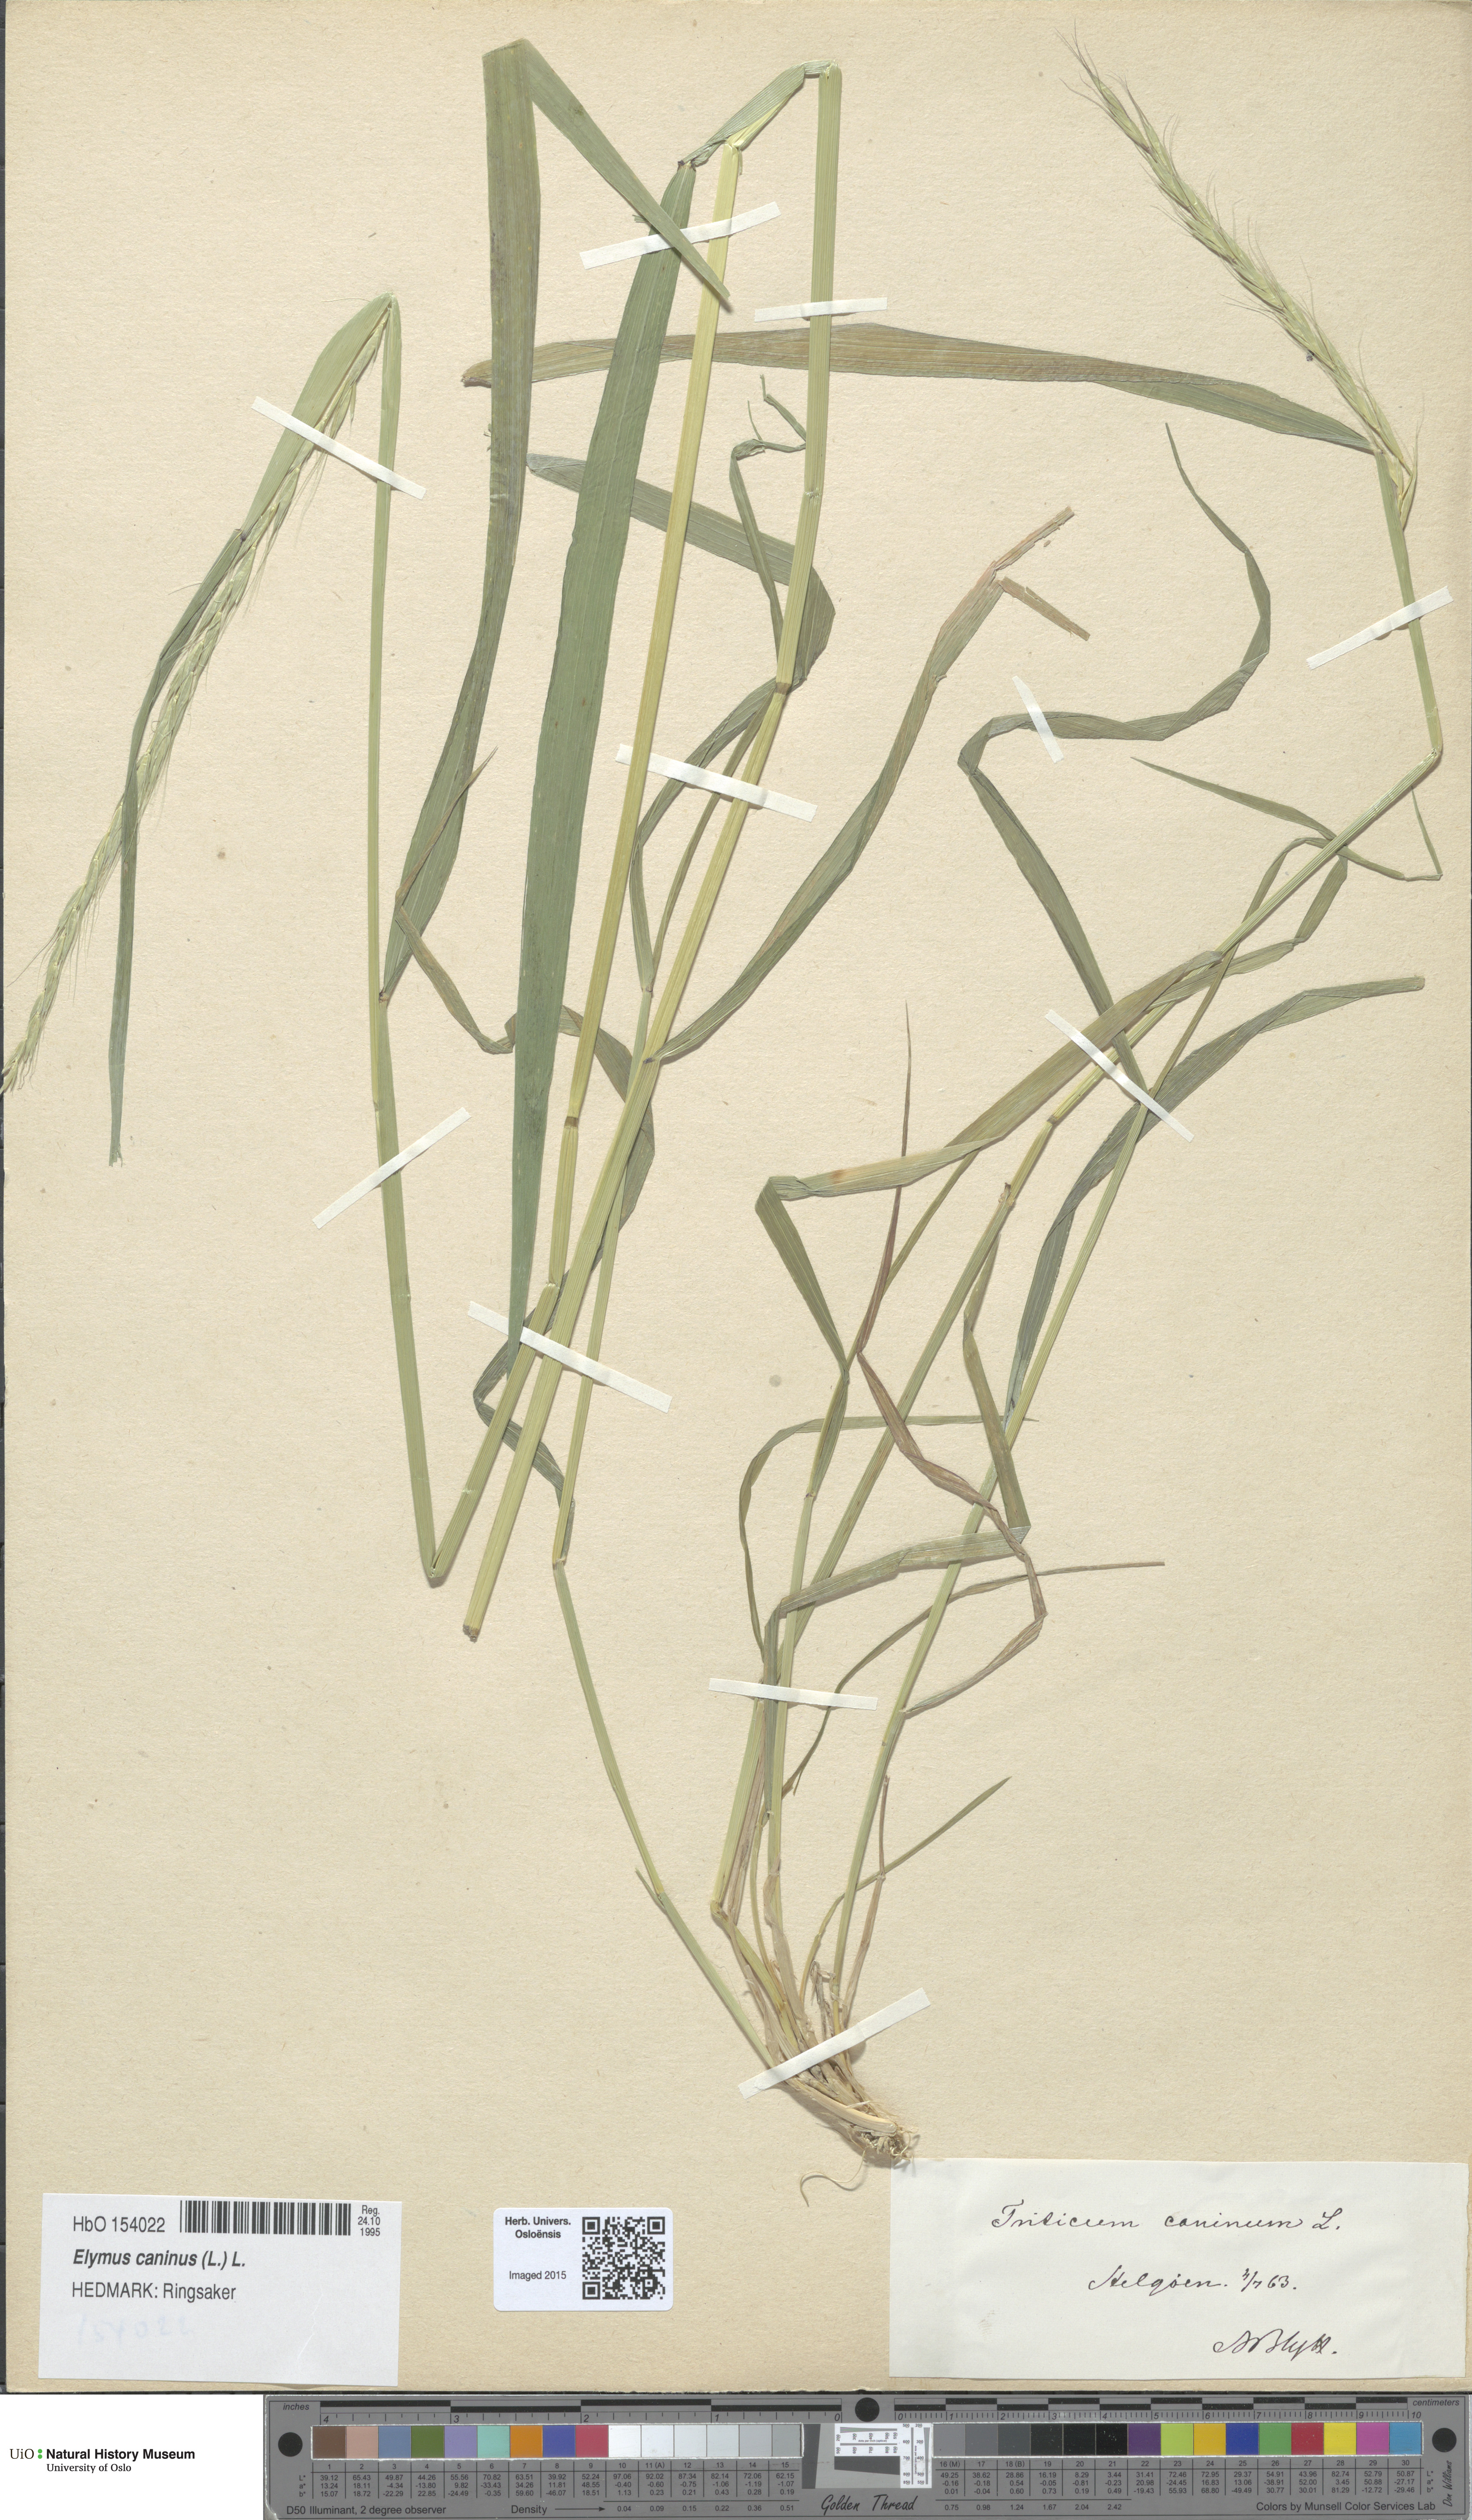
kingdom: Plantae
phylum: Tracheophyta
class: Liliopsida
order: Poales
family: Poaceae
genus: Elymus
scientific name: Elymus caninus
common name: Bearded couch
